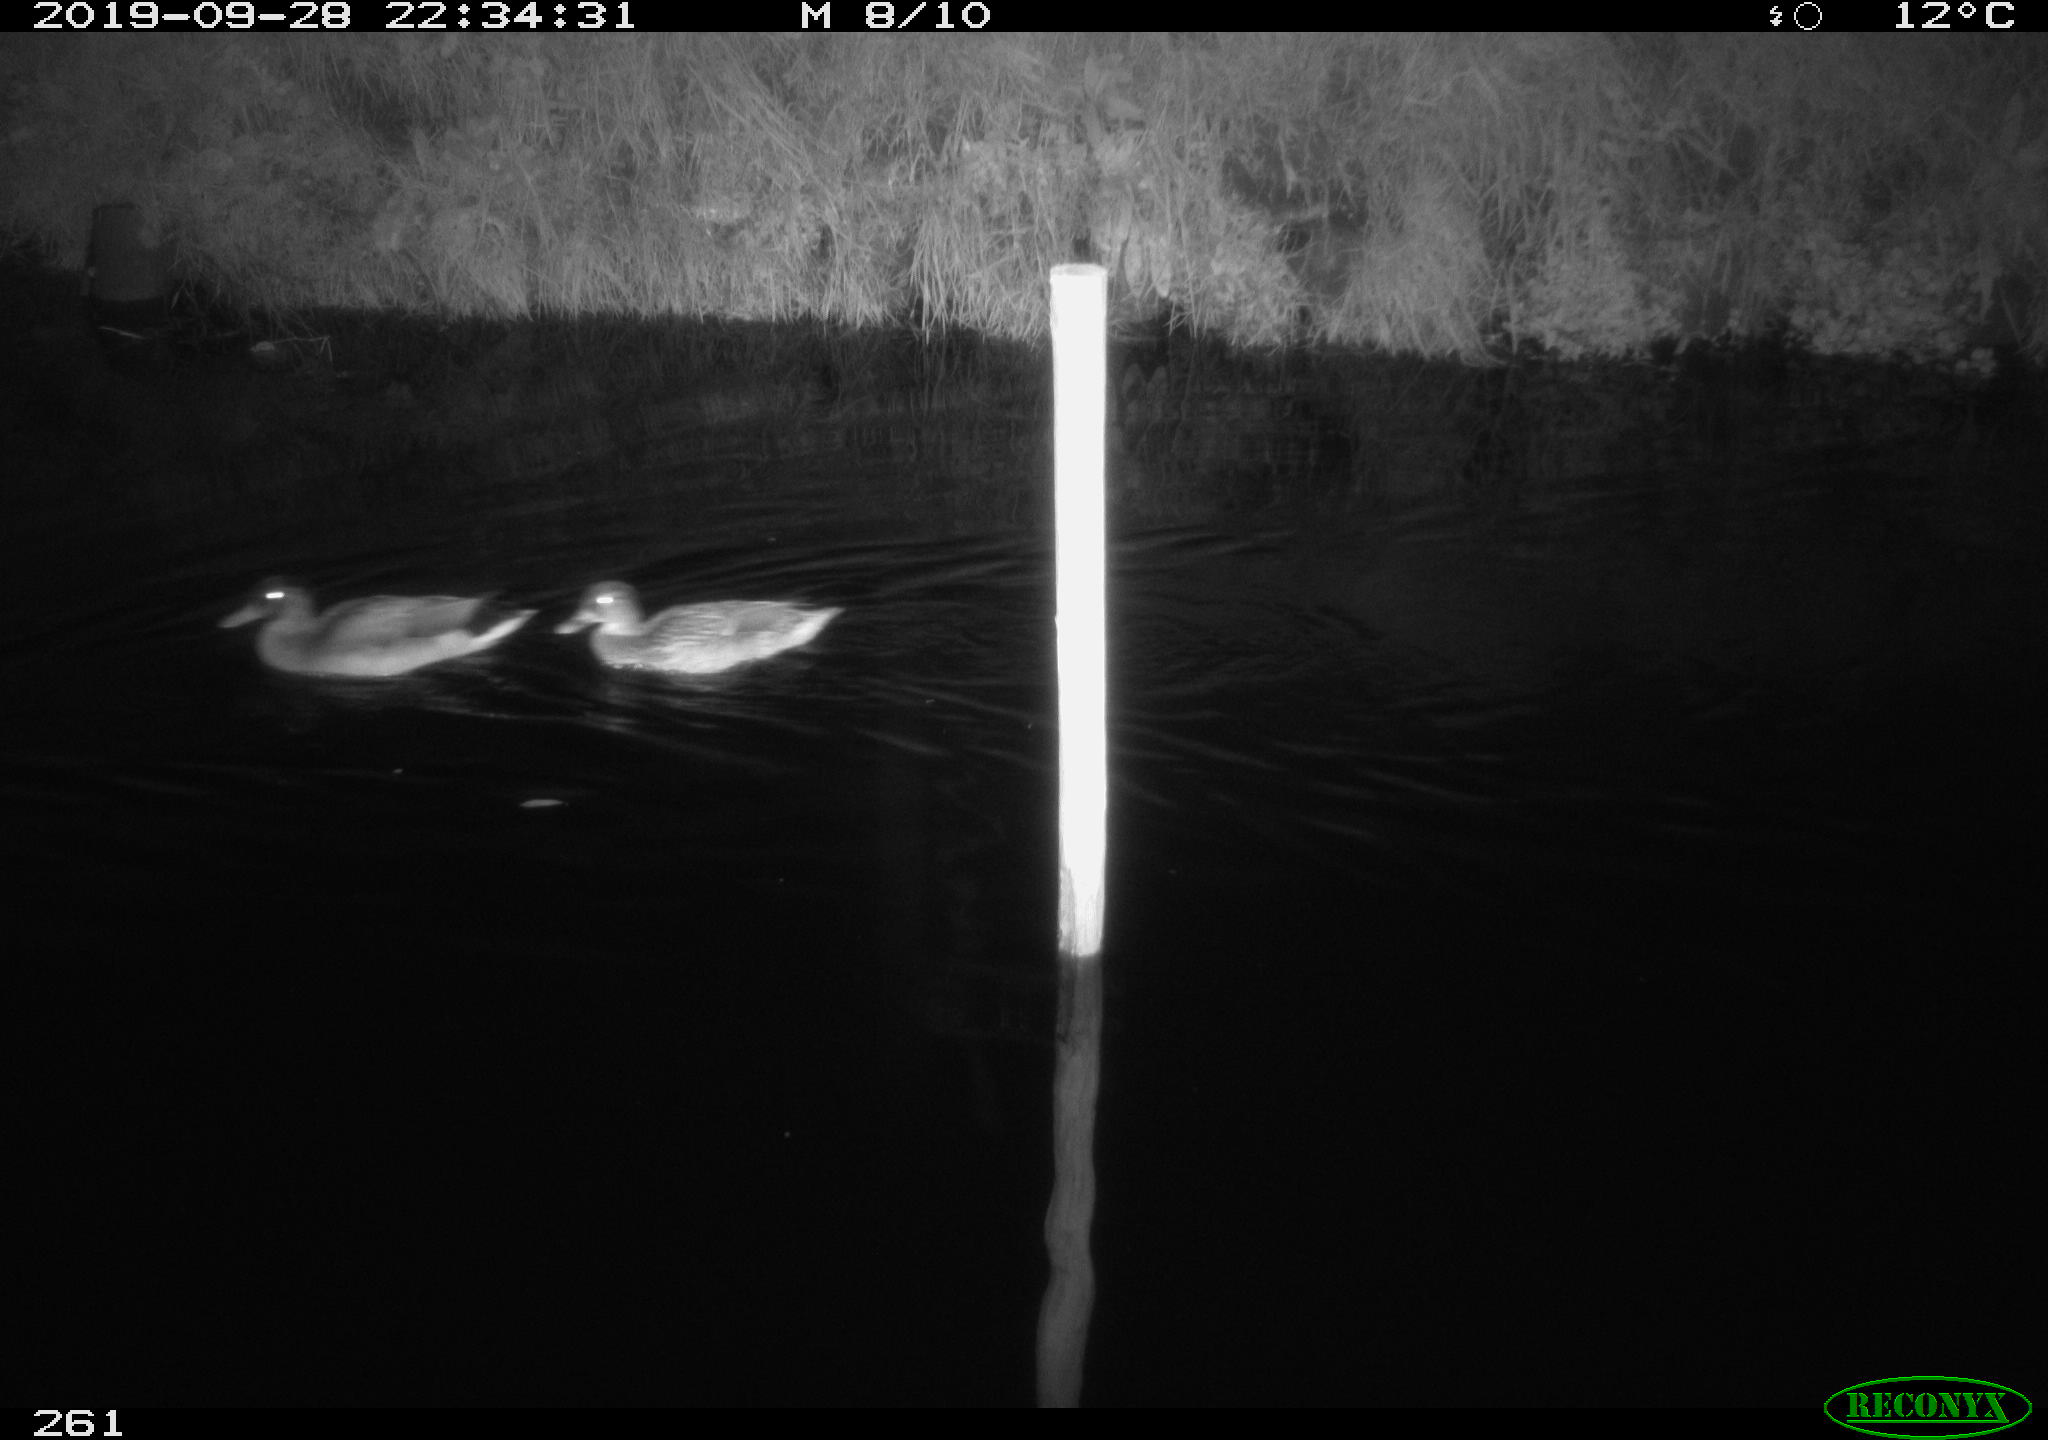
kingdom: Animalia
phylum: Chordata
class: Aves
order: Anseriformes
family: Anatidae
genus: Anas
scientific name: Anas platyrhynchos
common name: Mallard
